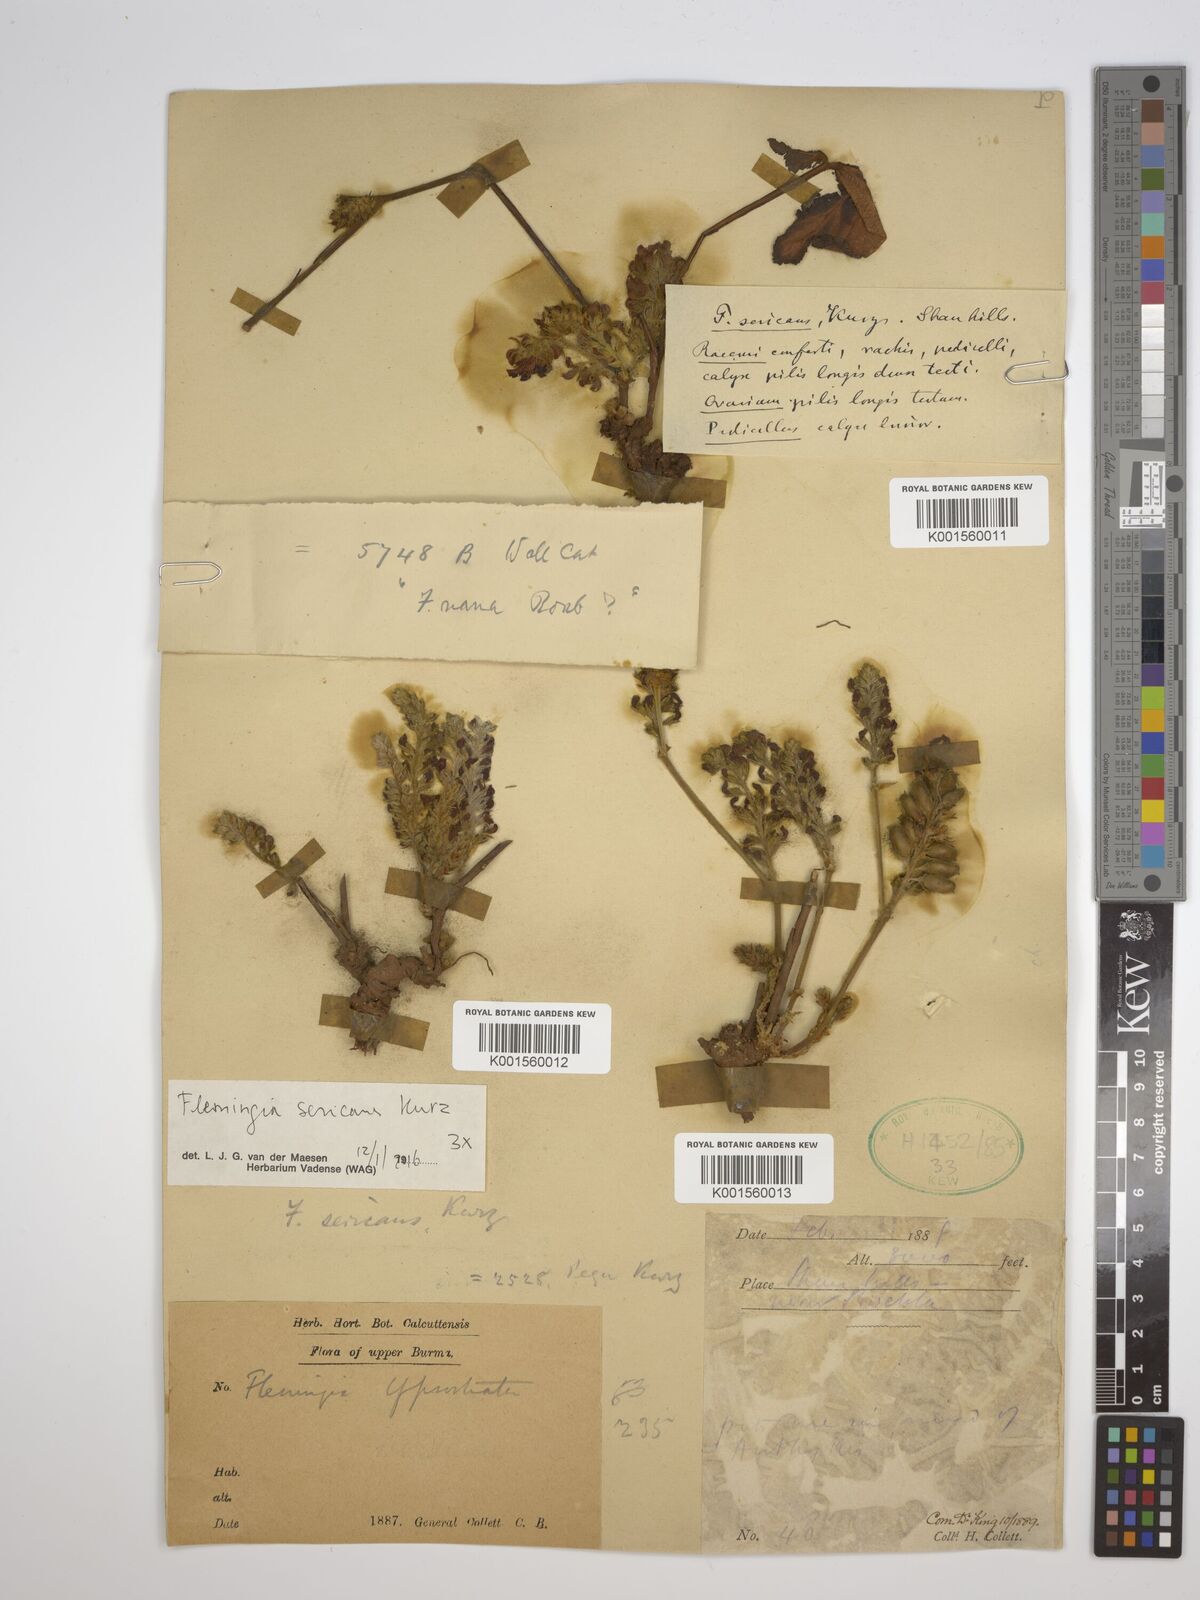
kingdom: Plantae
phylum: Tracheophyta
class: Magnoliopsida
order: Fabales
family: Fabaceae
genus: Flemingia
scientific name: Flemingia macrophylla
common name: Flemingia
